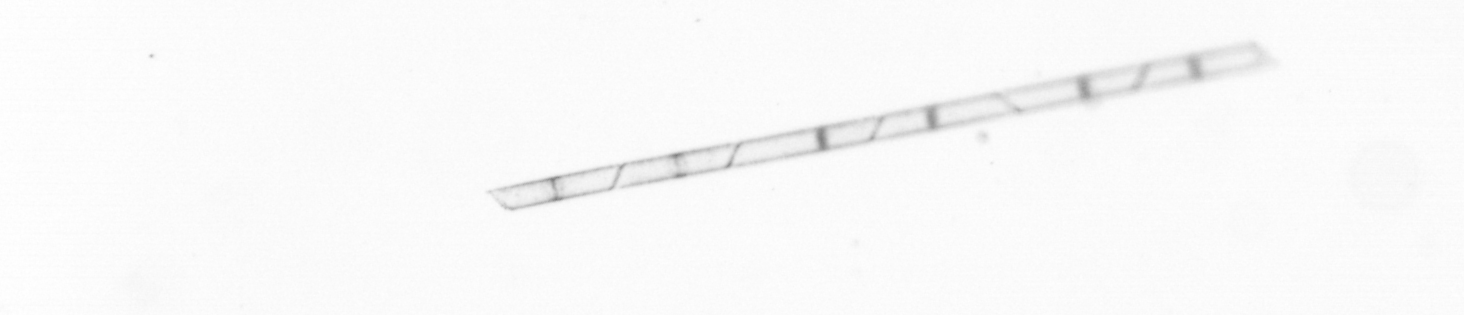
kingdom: Chromista
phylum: Ochrophyta
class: Bacillariophyceae
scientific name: Bacillariophyceae
